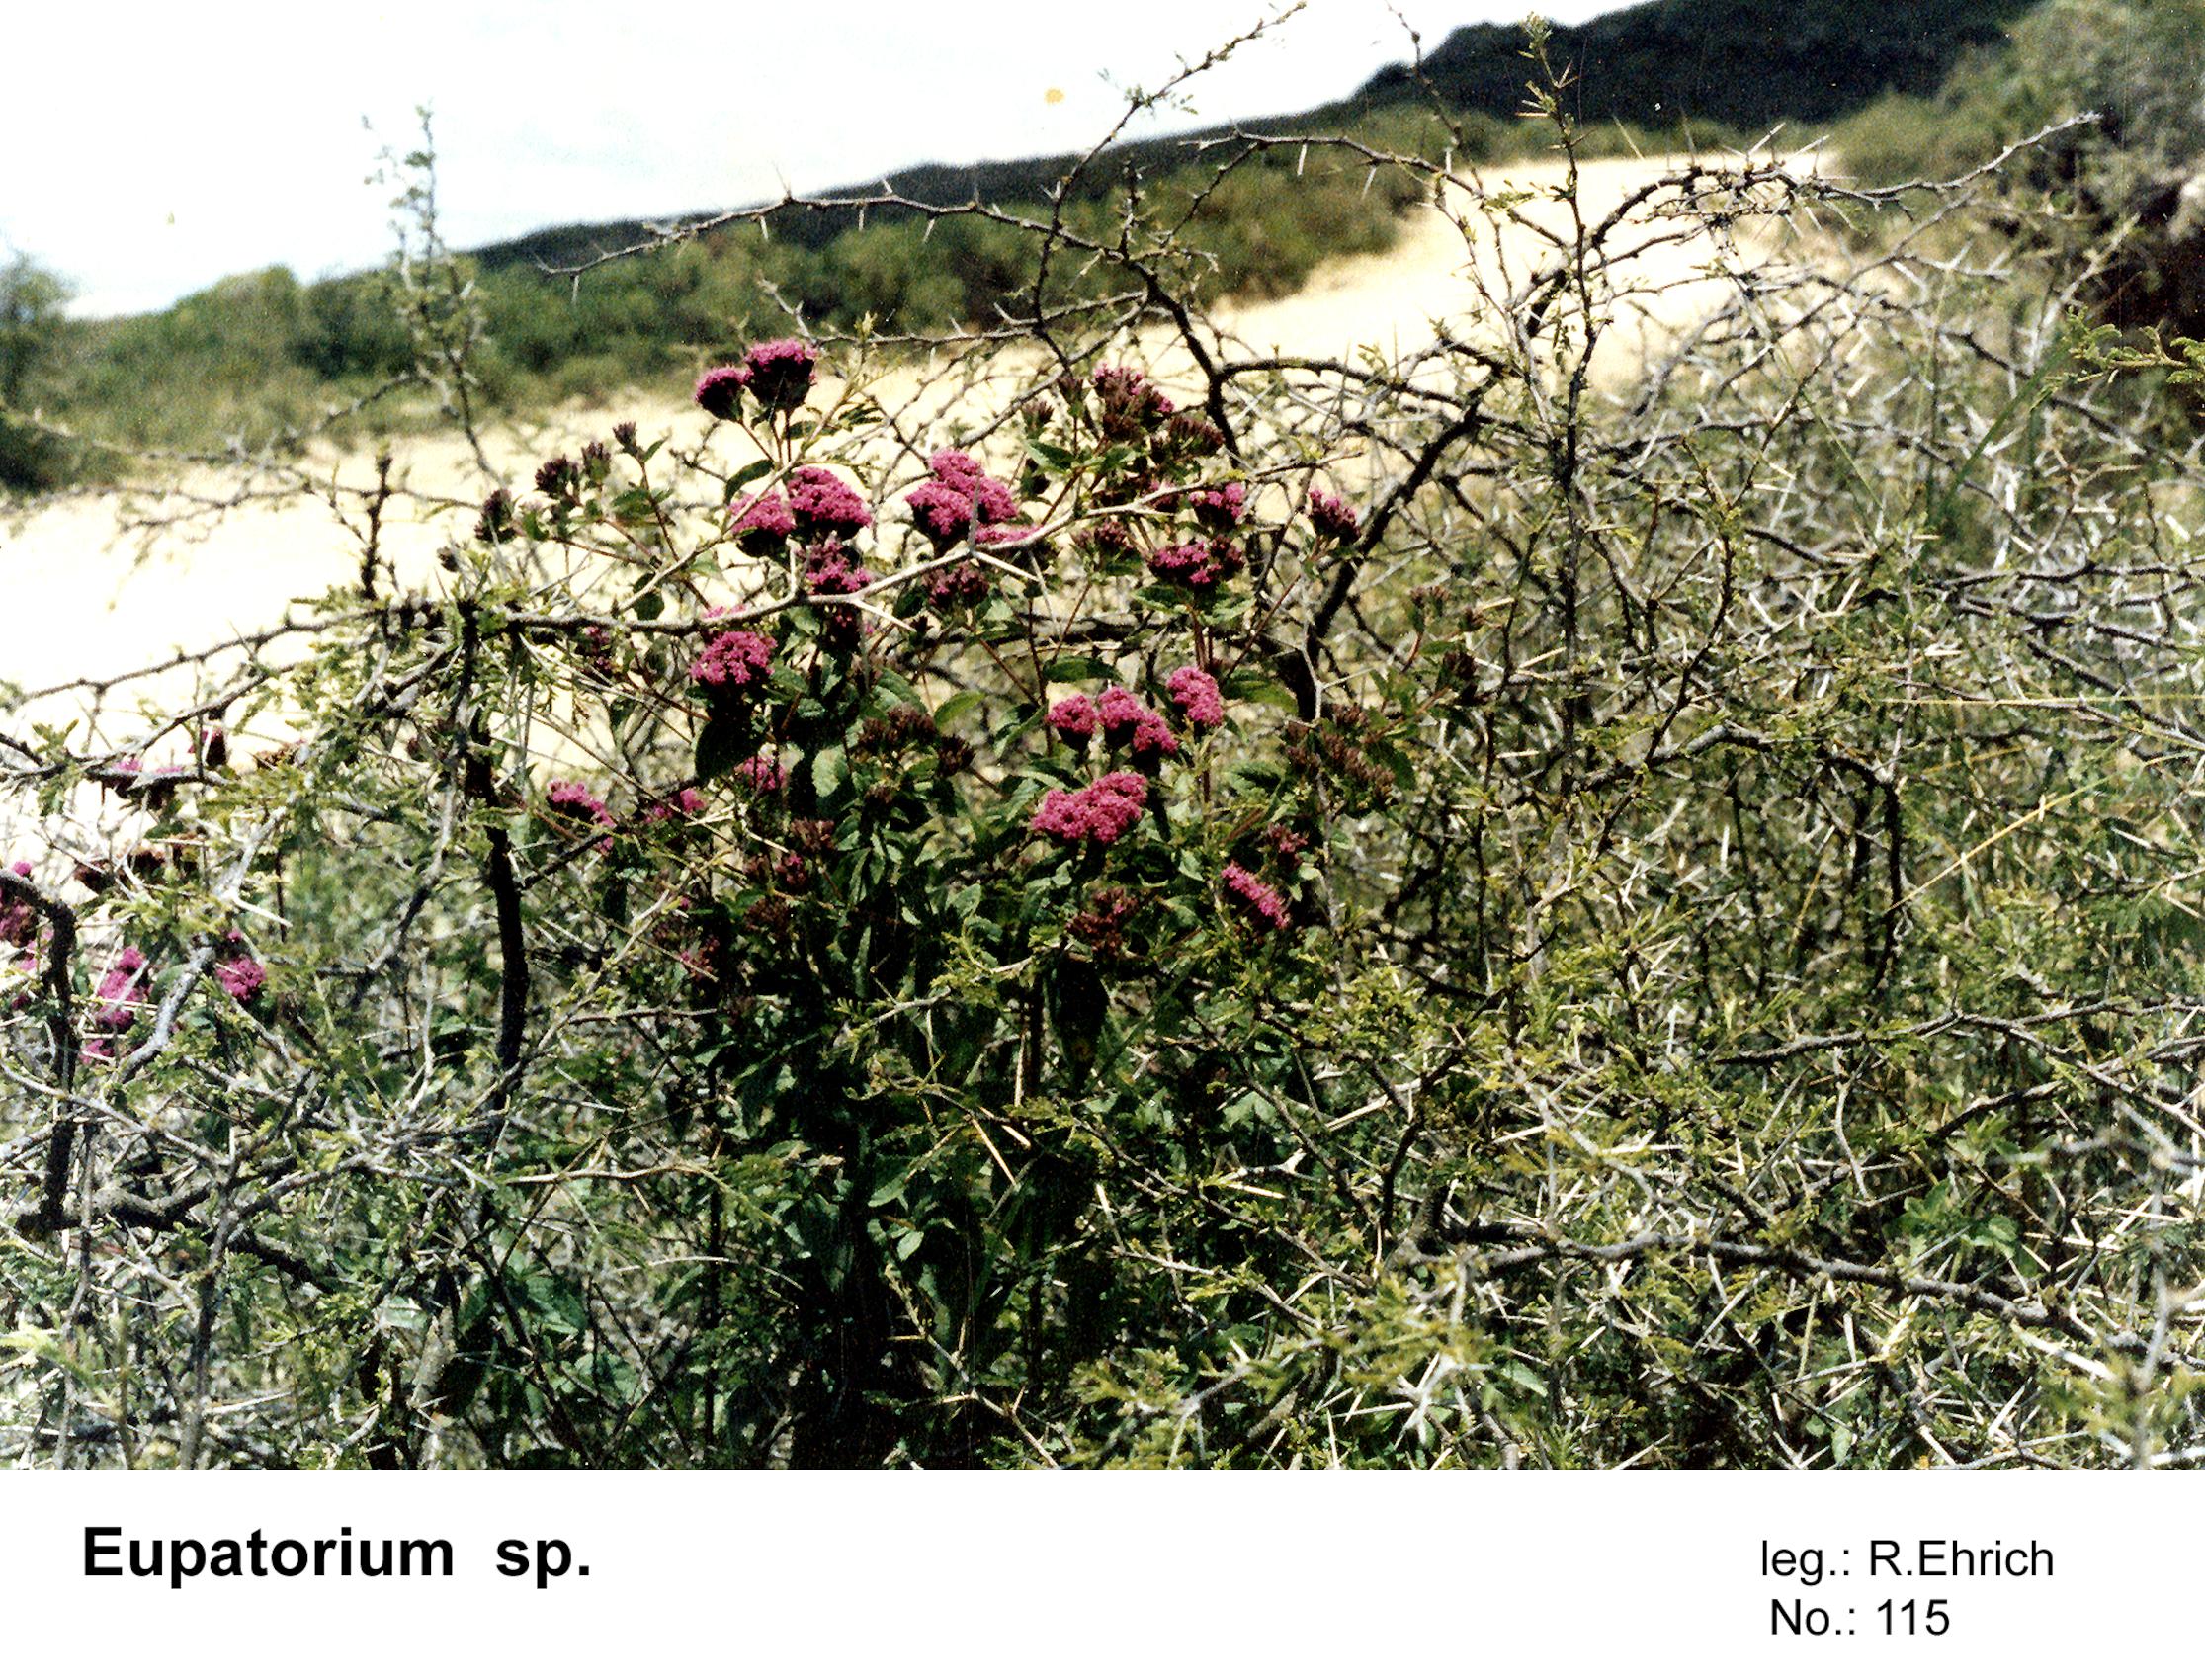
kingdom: Plantae
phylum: Tracheophyta
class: Magnoliopsida
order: Asterales
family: Asteraceae
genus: Eupatorium
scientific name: Eupatorium
